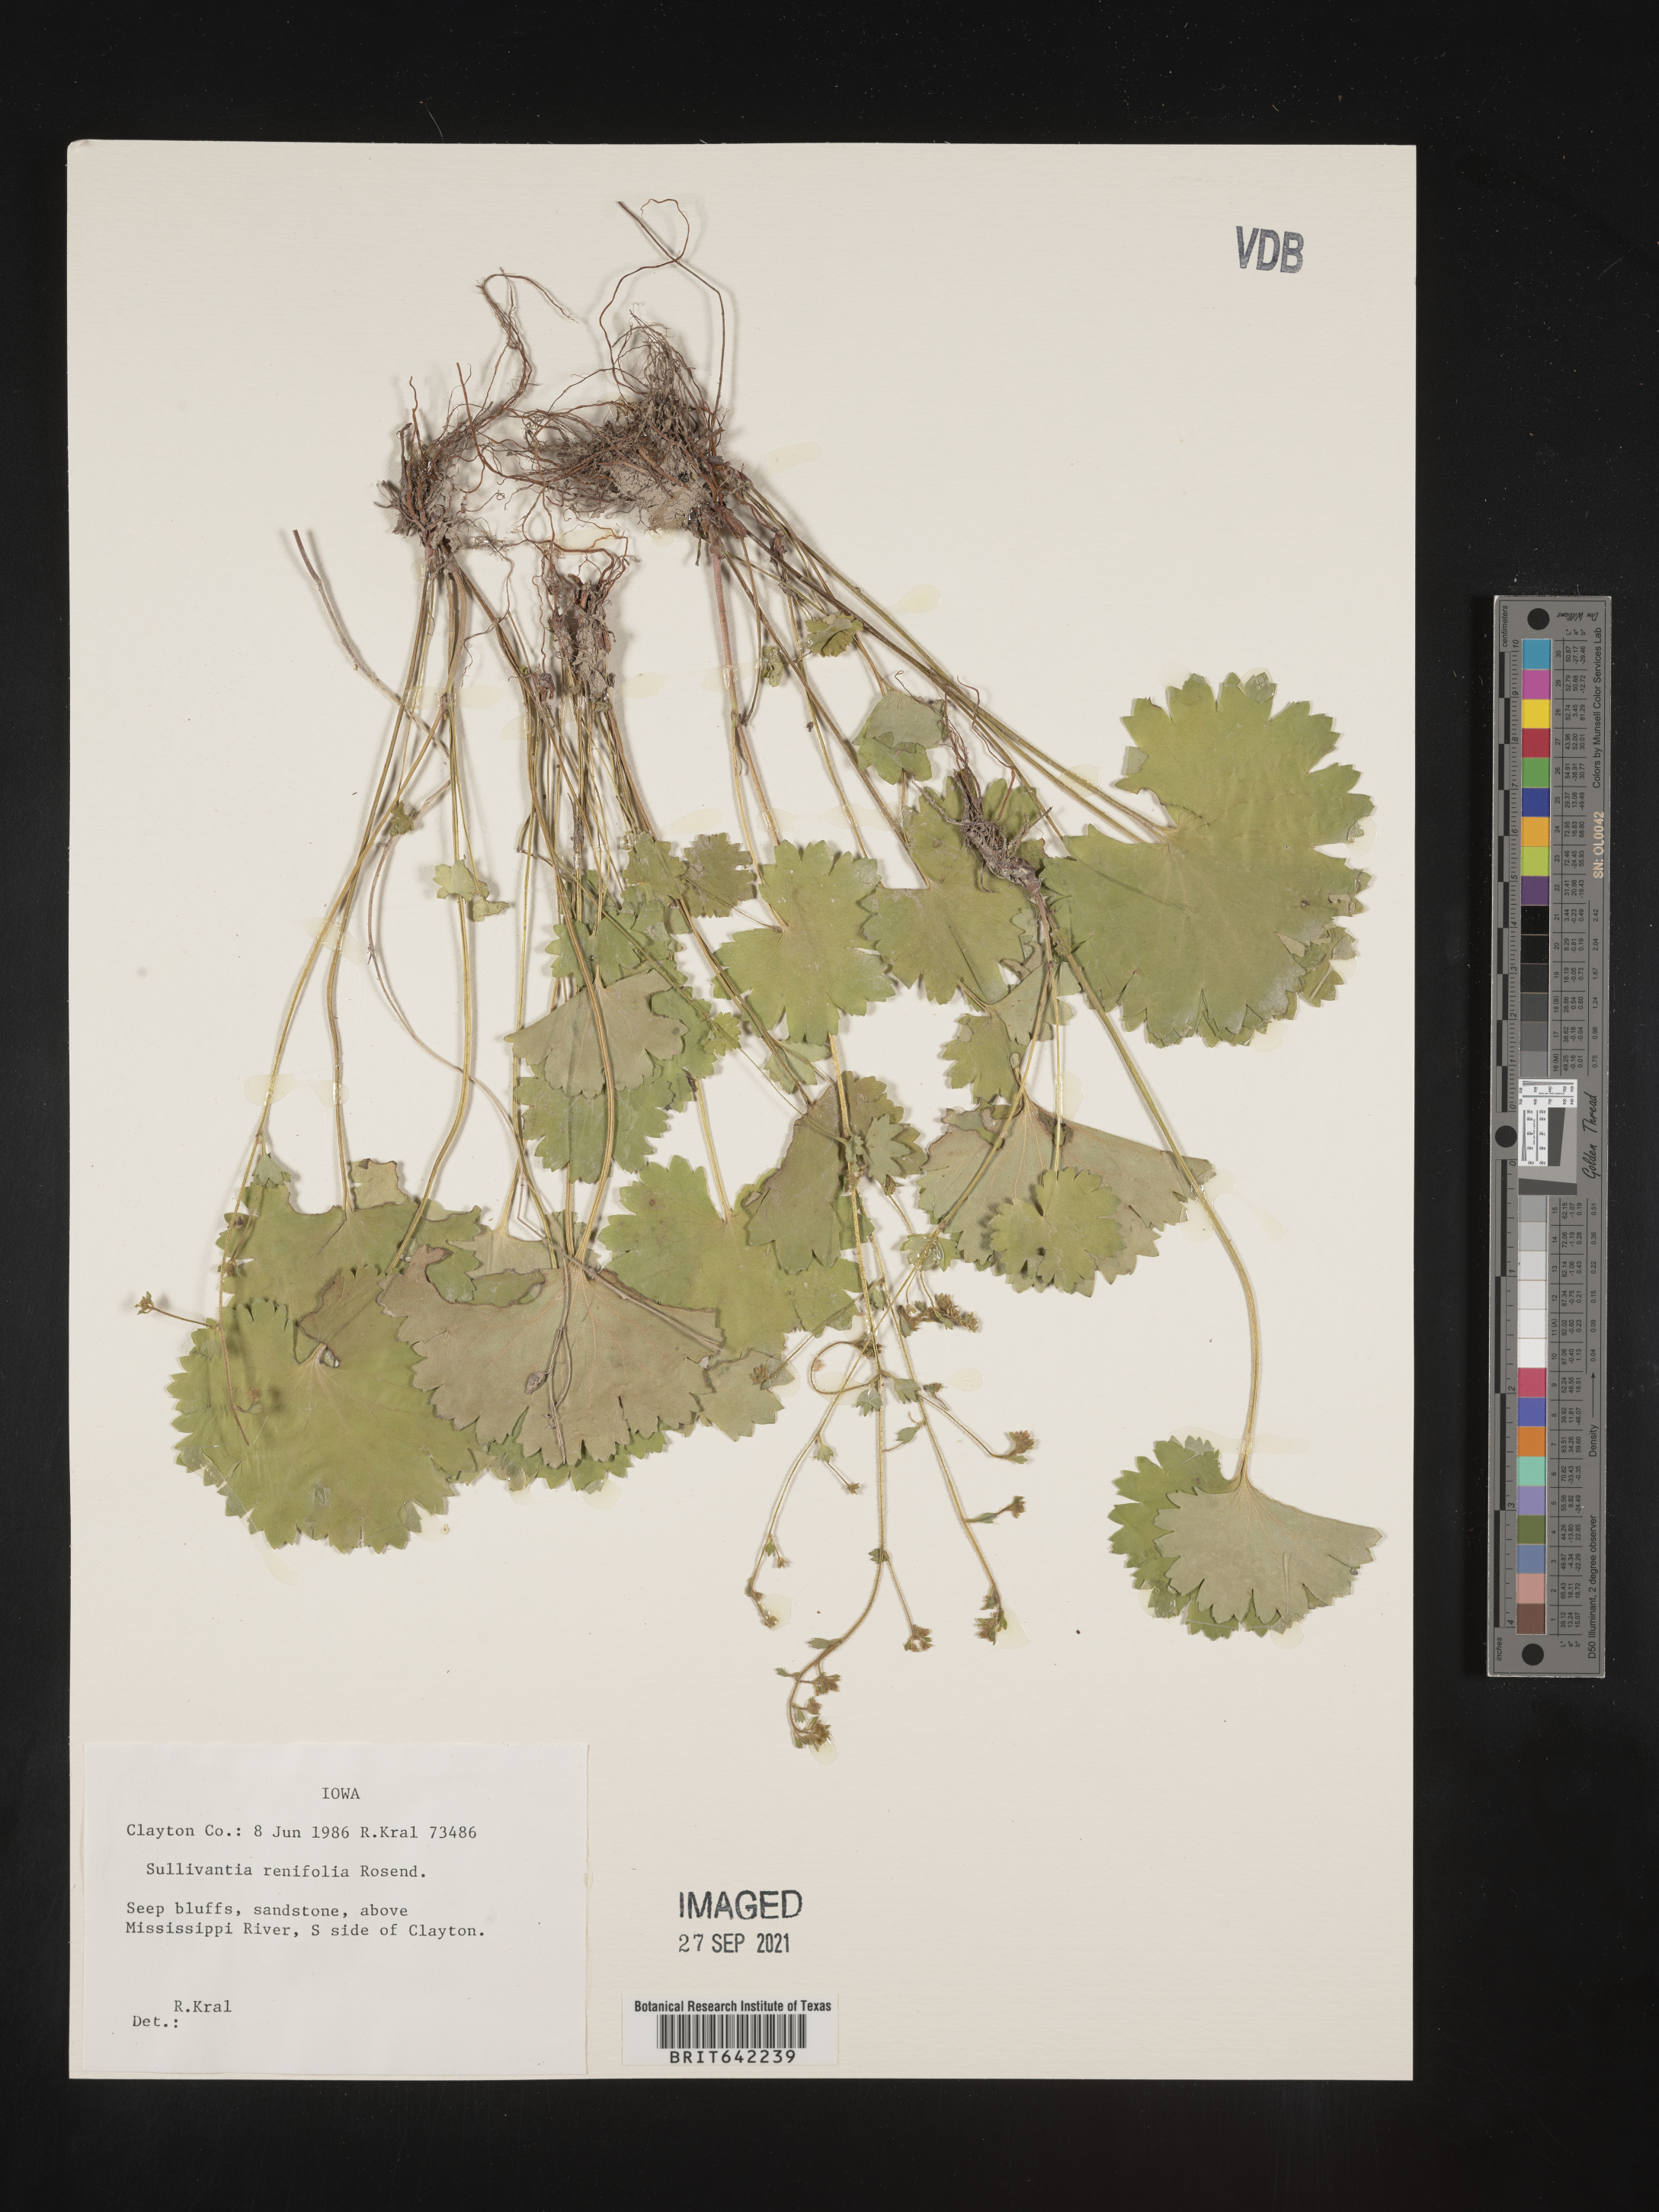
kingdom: Plantae
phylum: Tracheophyta
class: Magnoliopsida
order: Saxifragales
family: Saxifragaceae
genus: Sullivantia
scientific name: Sullivantia sullivantii
